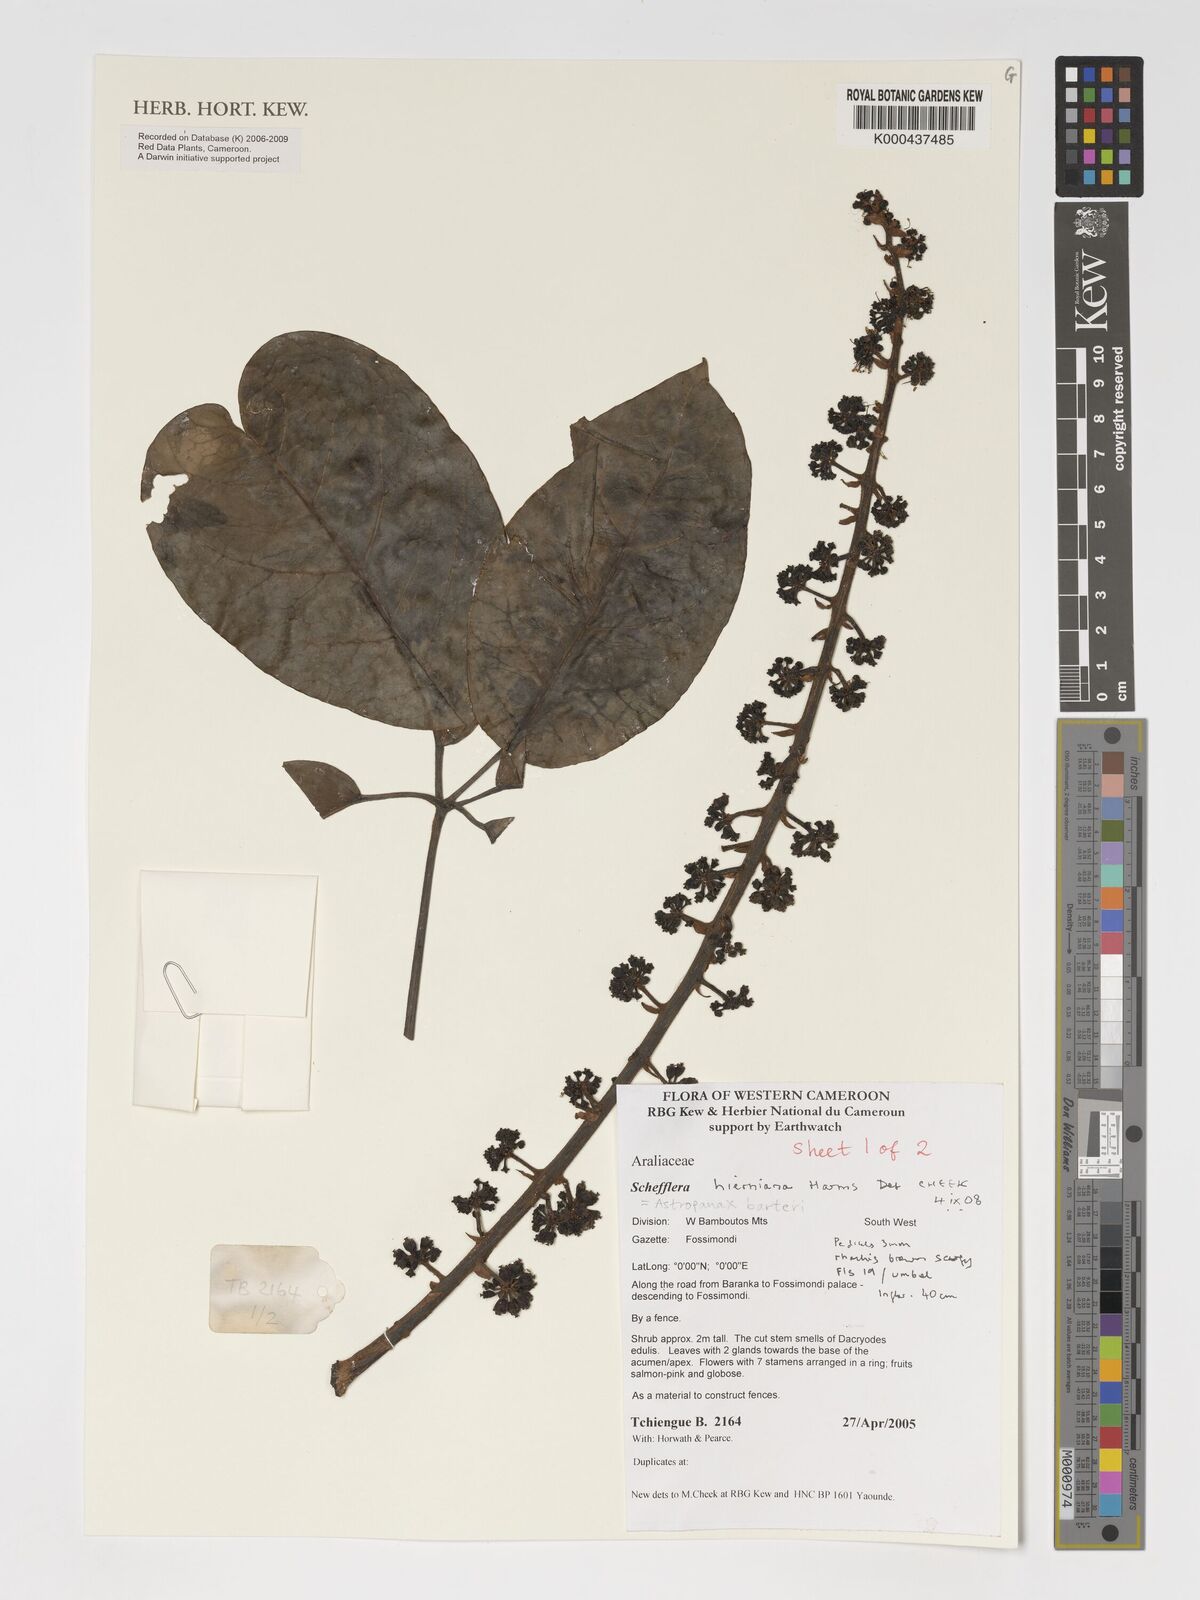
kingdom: Plantae
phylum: Tracheophyta
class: Magnoliopsida
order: Apiales
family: Araliaceae
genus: Astropanax
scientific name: Astropanax barteri
